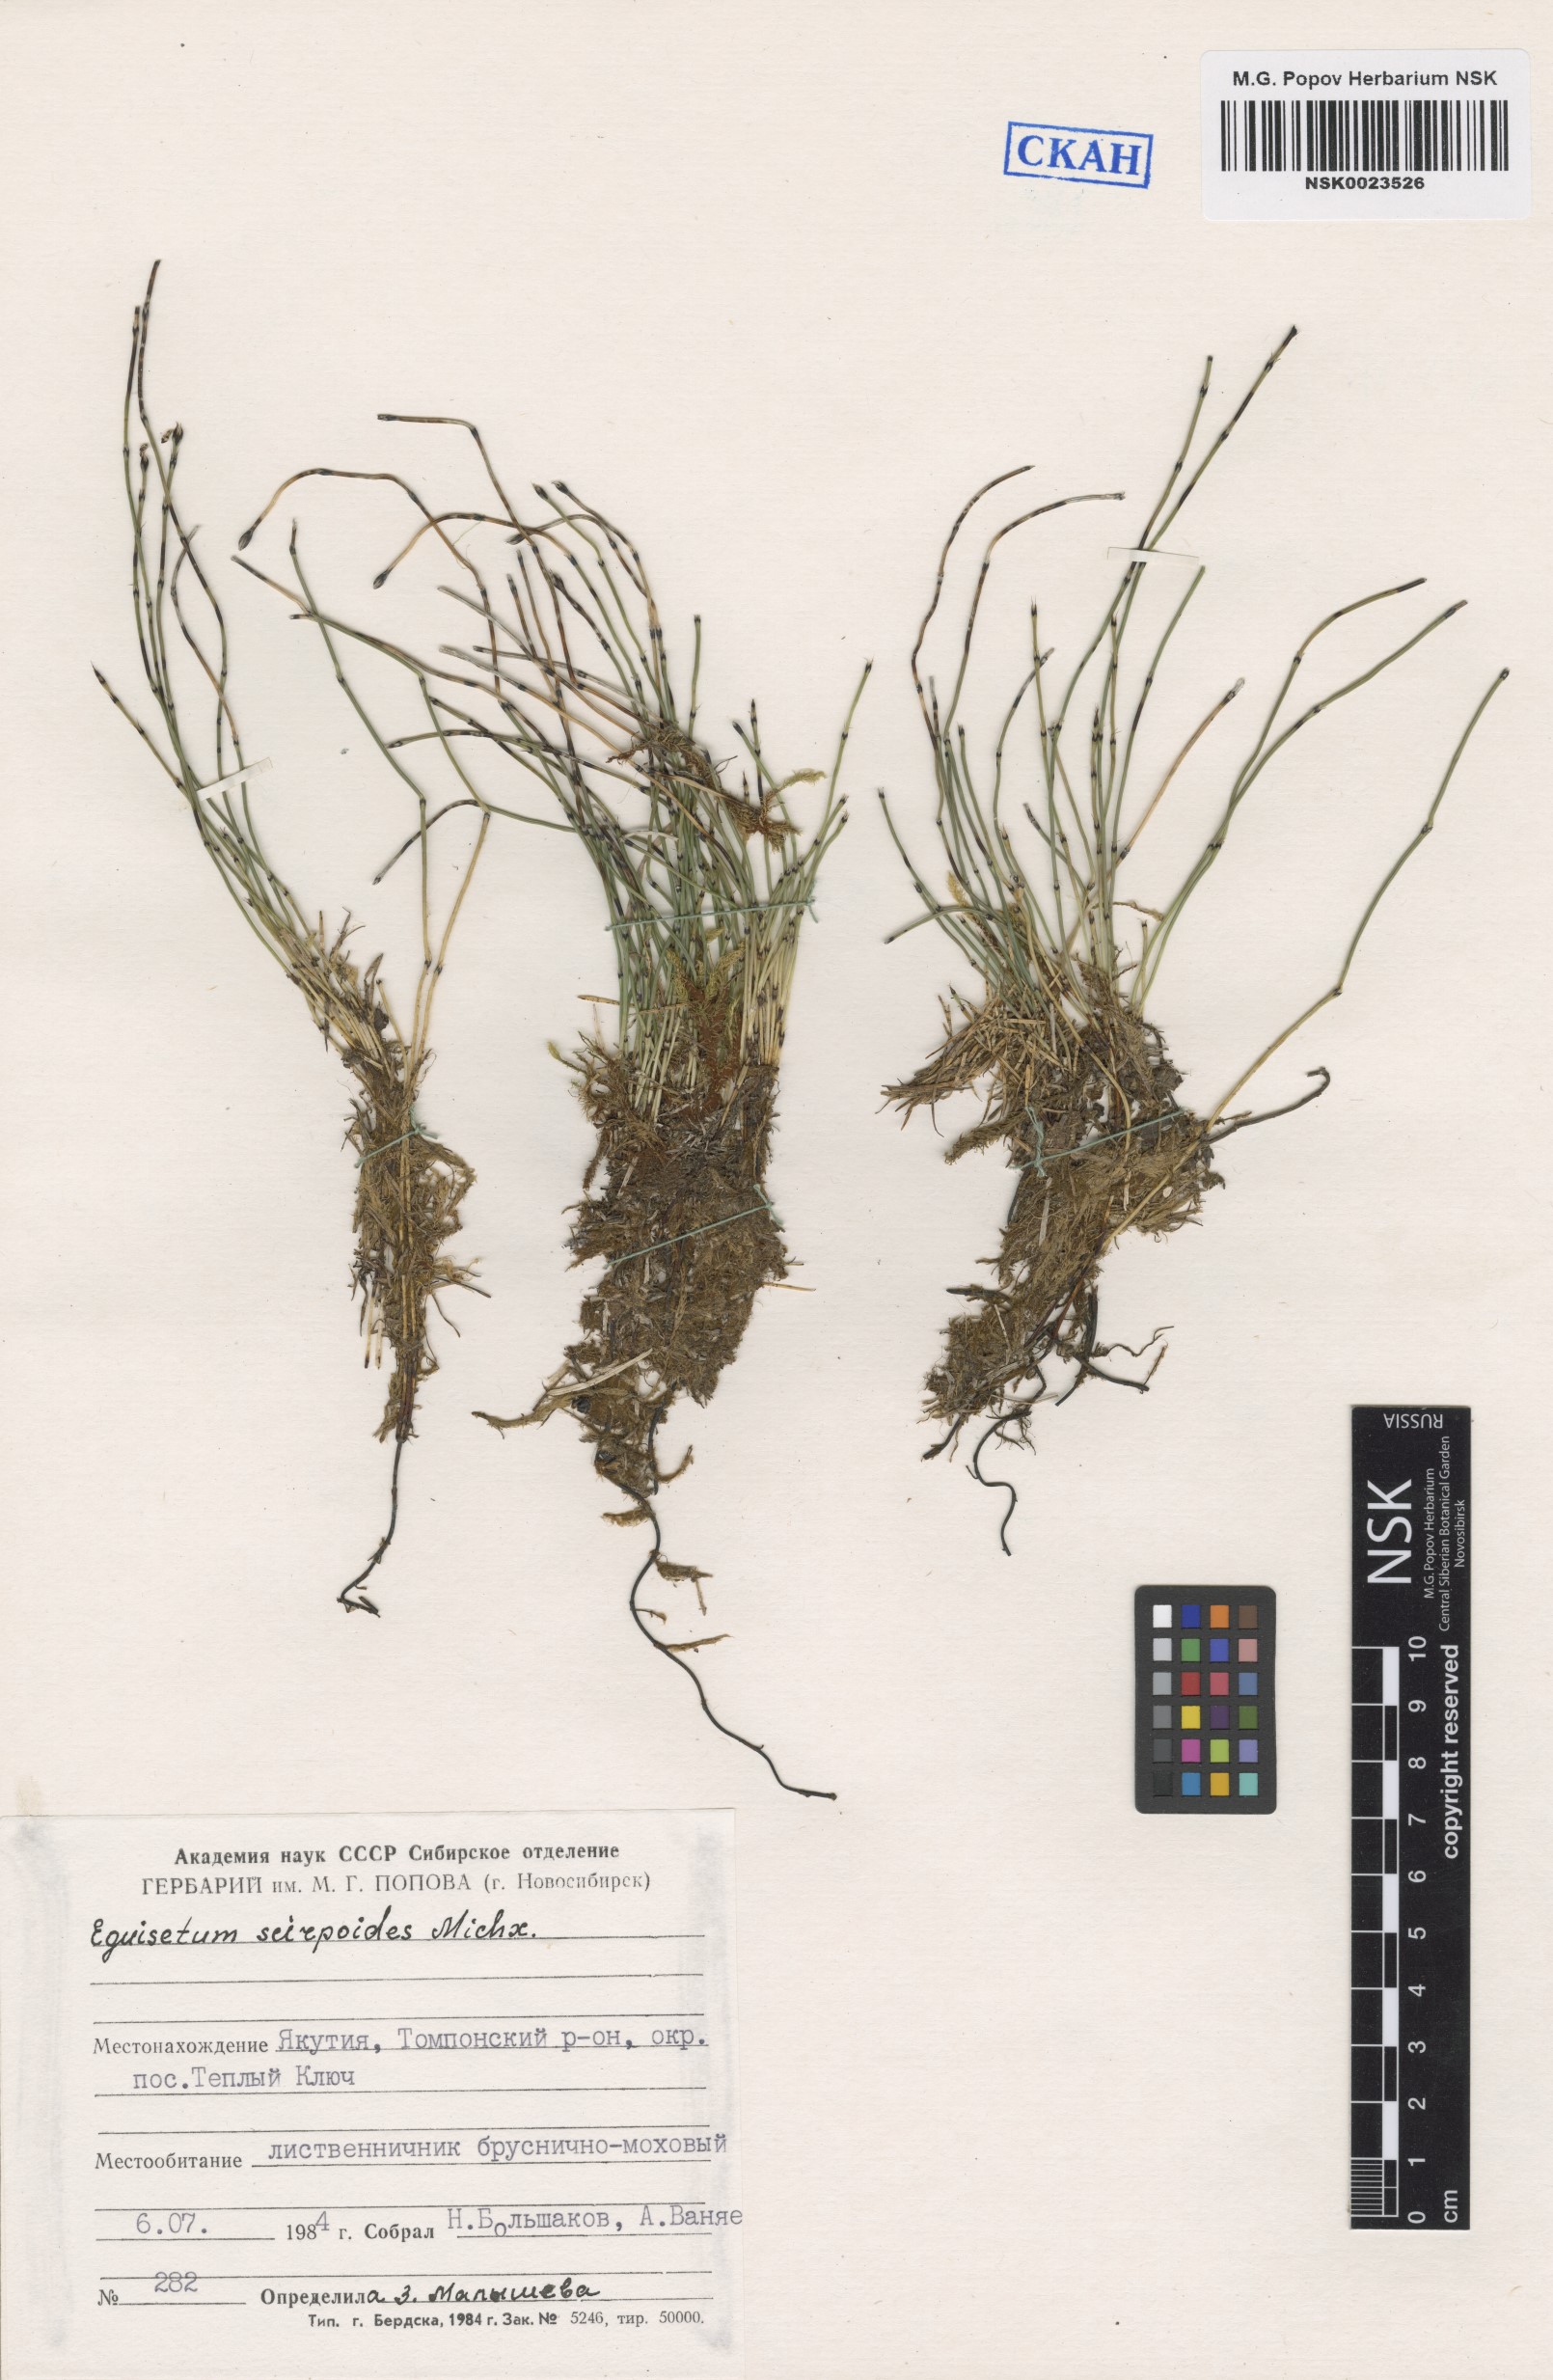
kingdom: Plantae
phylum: Tracheophyta
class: Polypodiopsida
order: Equisetales
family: Equisetaceae
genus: Equisetum
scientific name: Equisetum scirpoides
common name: Delicate horsetail
